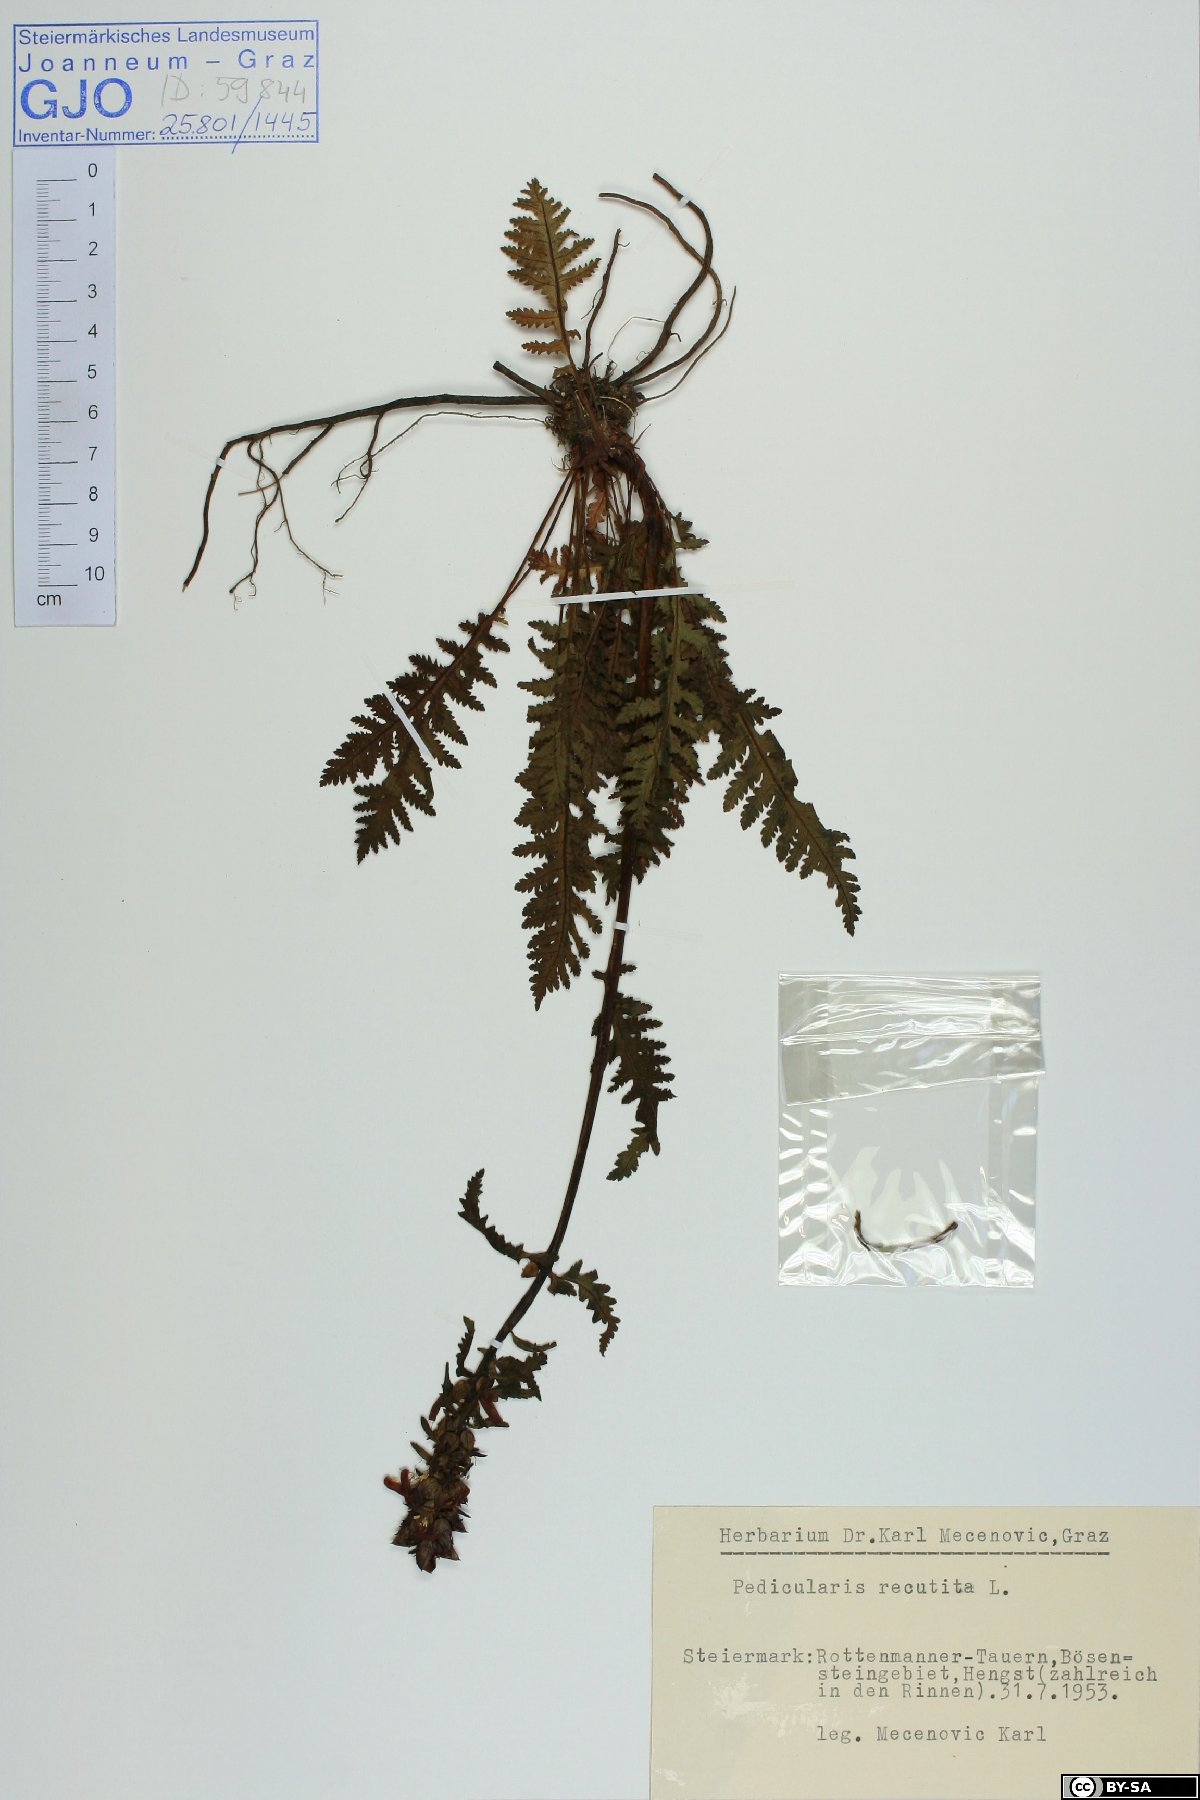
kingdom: Plantae
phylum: Tracheophyta
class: Magnoliopsida
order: Lamiales
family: Orobanchaceae
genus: Pedicularis
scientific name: Pedicularis recutita
